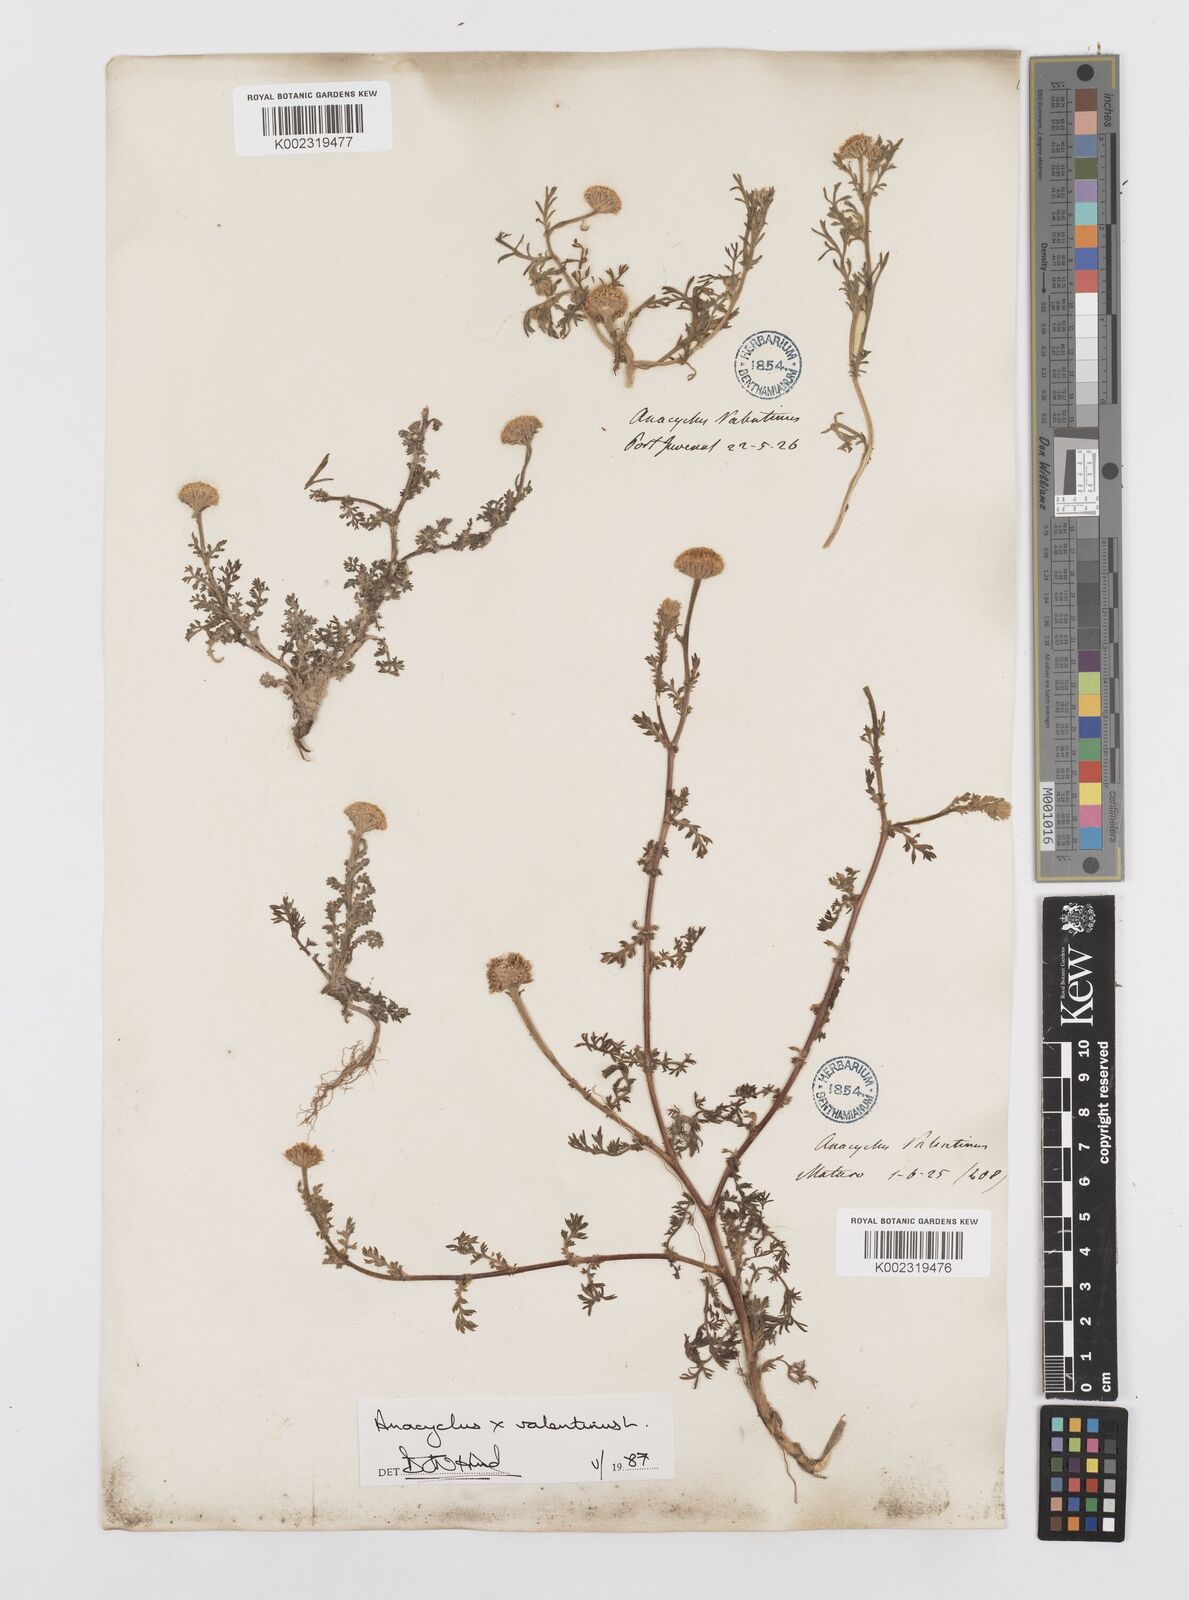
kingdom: Plantae
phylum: Tracheophyta
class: Magnoliopsida
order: Asterales
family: Asteraceae
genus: Anacyclus
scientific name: Anacyclus valentinus
